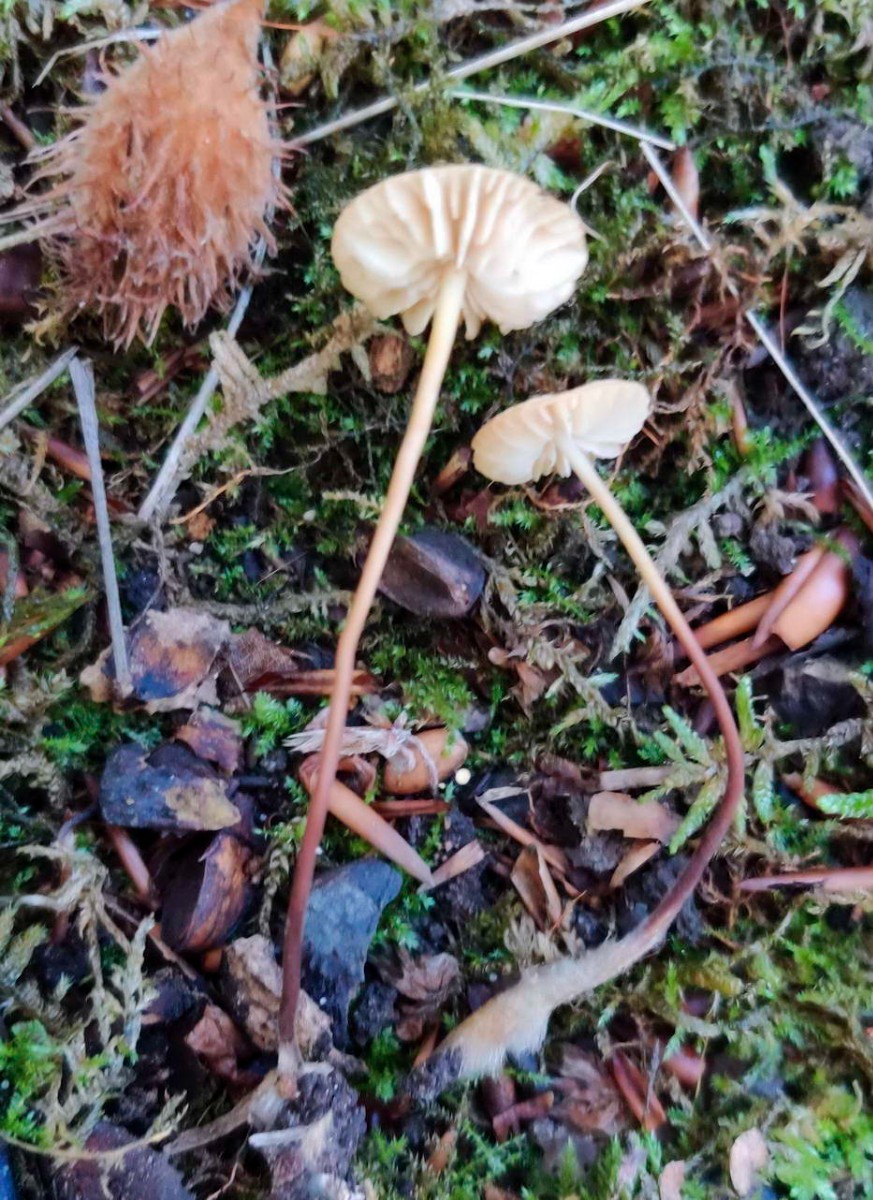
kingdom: Fungi
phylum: Basidiomycota
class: Agaricomycetes
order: Agaricales
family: Marasmiaceae
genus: Marasmius
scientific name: Marasmius torquescens
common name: filtfodet bruskhat
